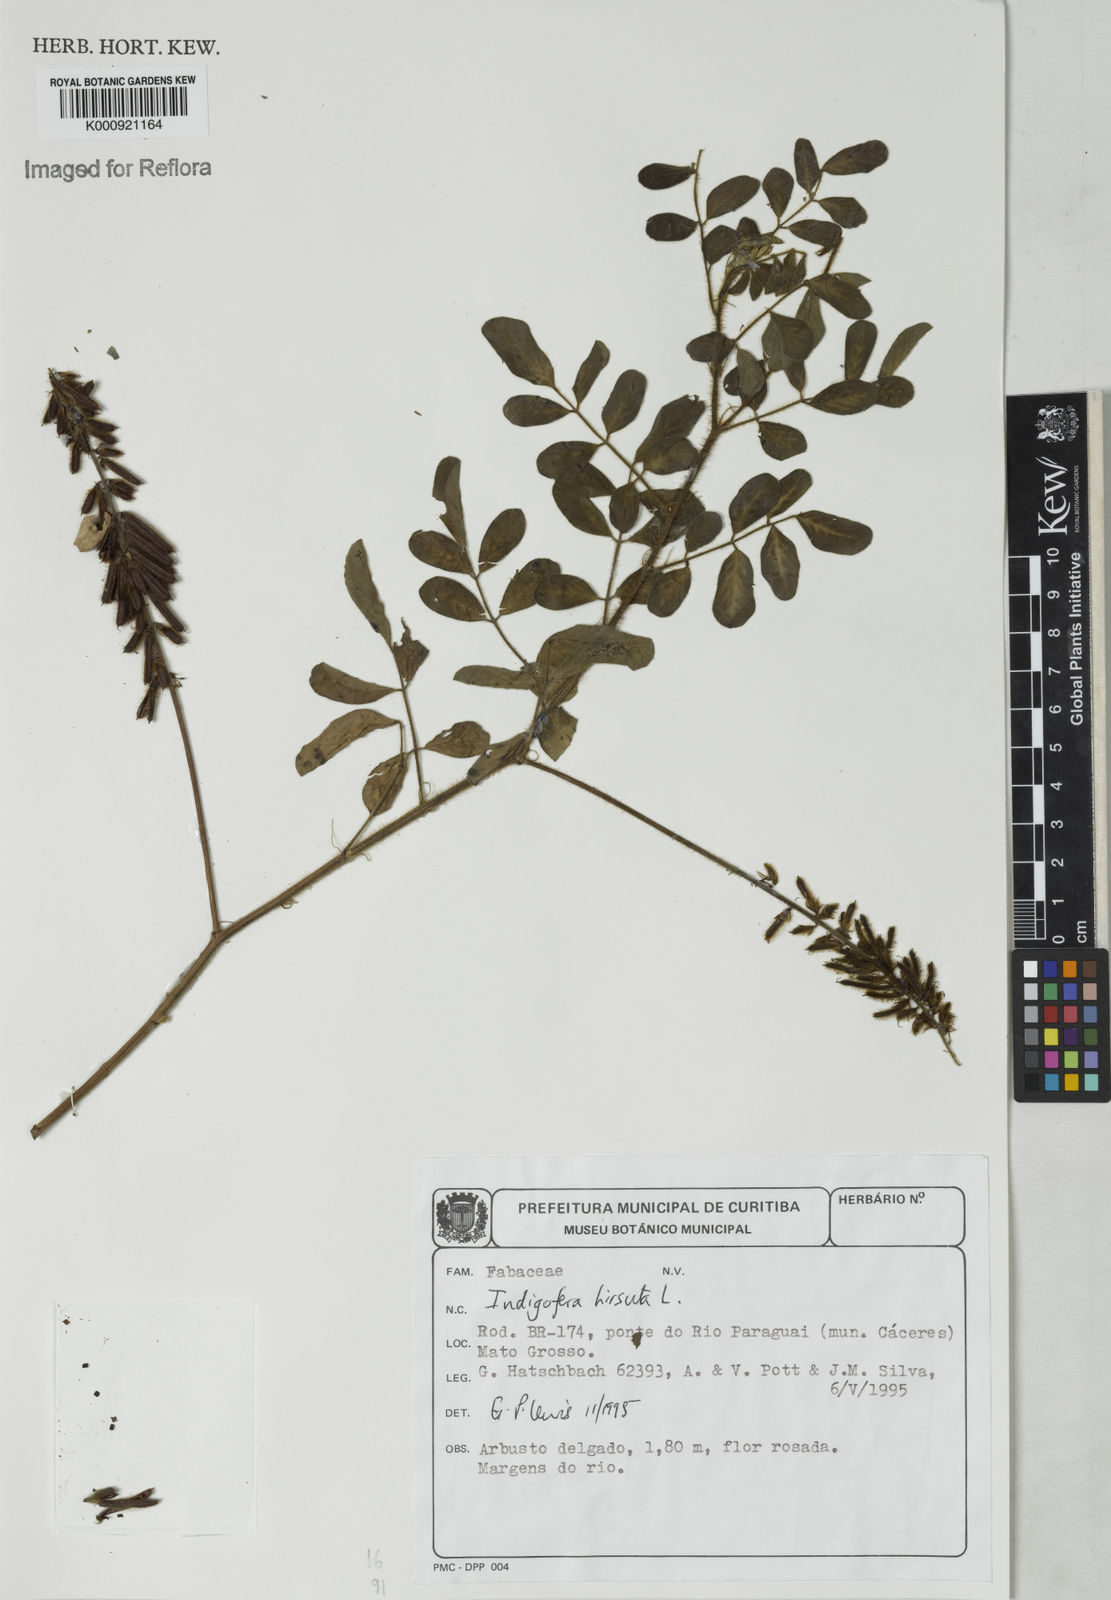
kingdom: Plantae
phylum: Tracheophyta
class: Magnoliopsida
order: Fabales
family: Fabaceae
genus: Indigofera
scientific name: Indigofera hirsuta
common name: Hairy indigo
